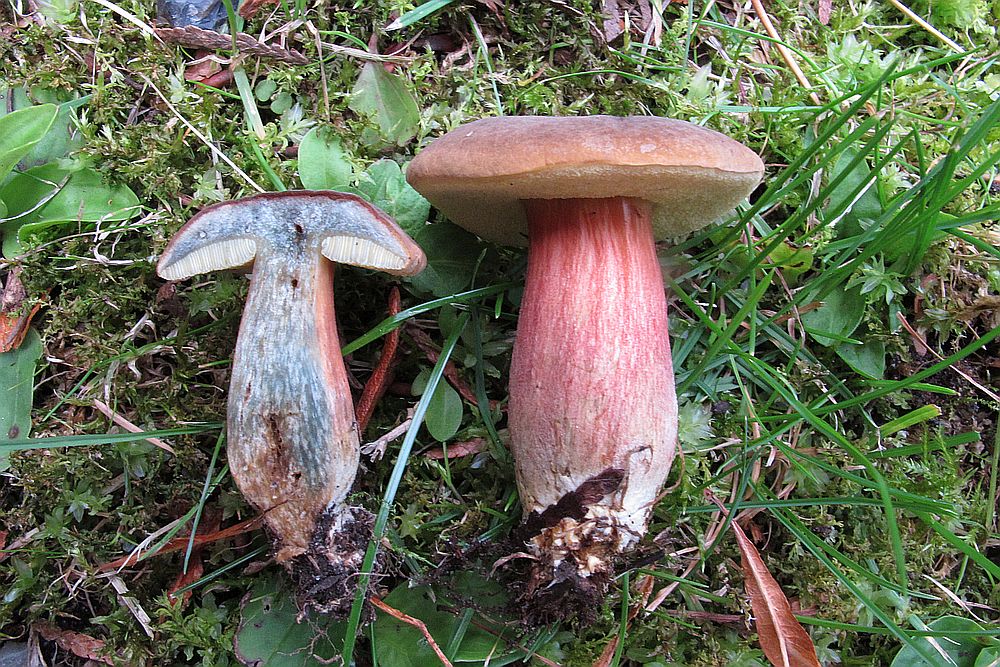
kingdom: Fungi
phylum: Basidiomycota
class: Agaricomycetes
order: Boletales
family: Boletaceae
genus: Xerocomellus
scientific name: Xerocomellus cisalpinus
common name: finsprukken rørhat
